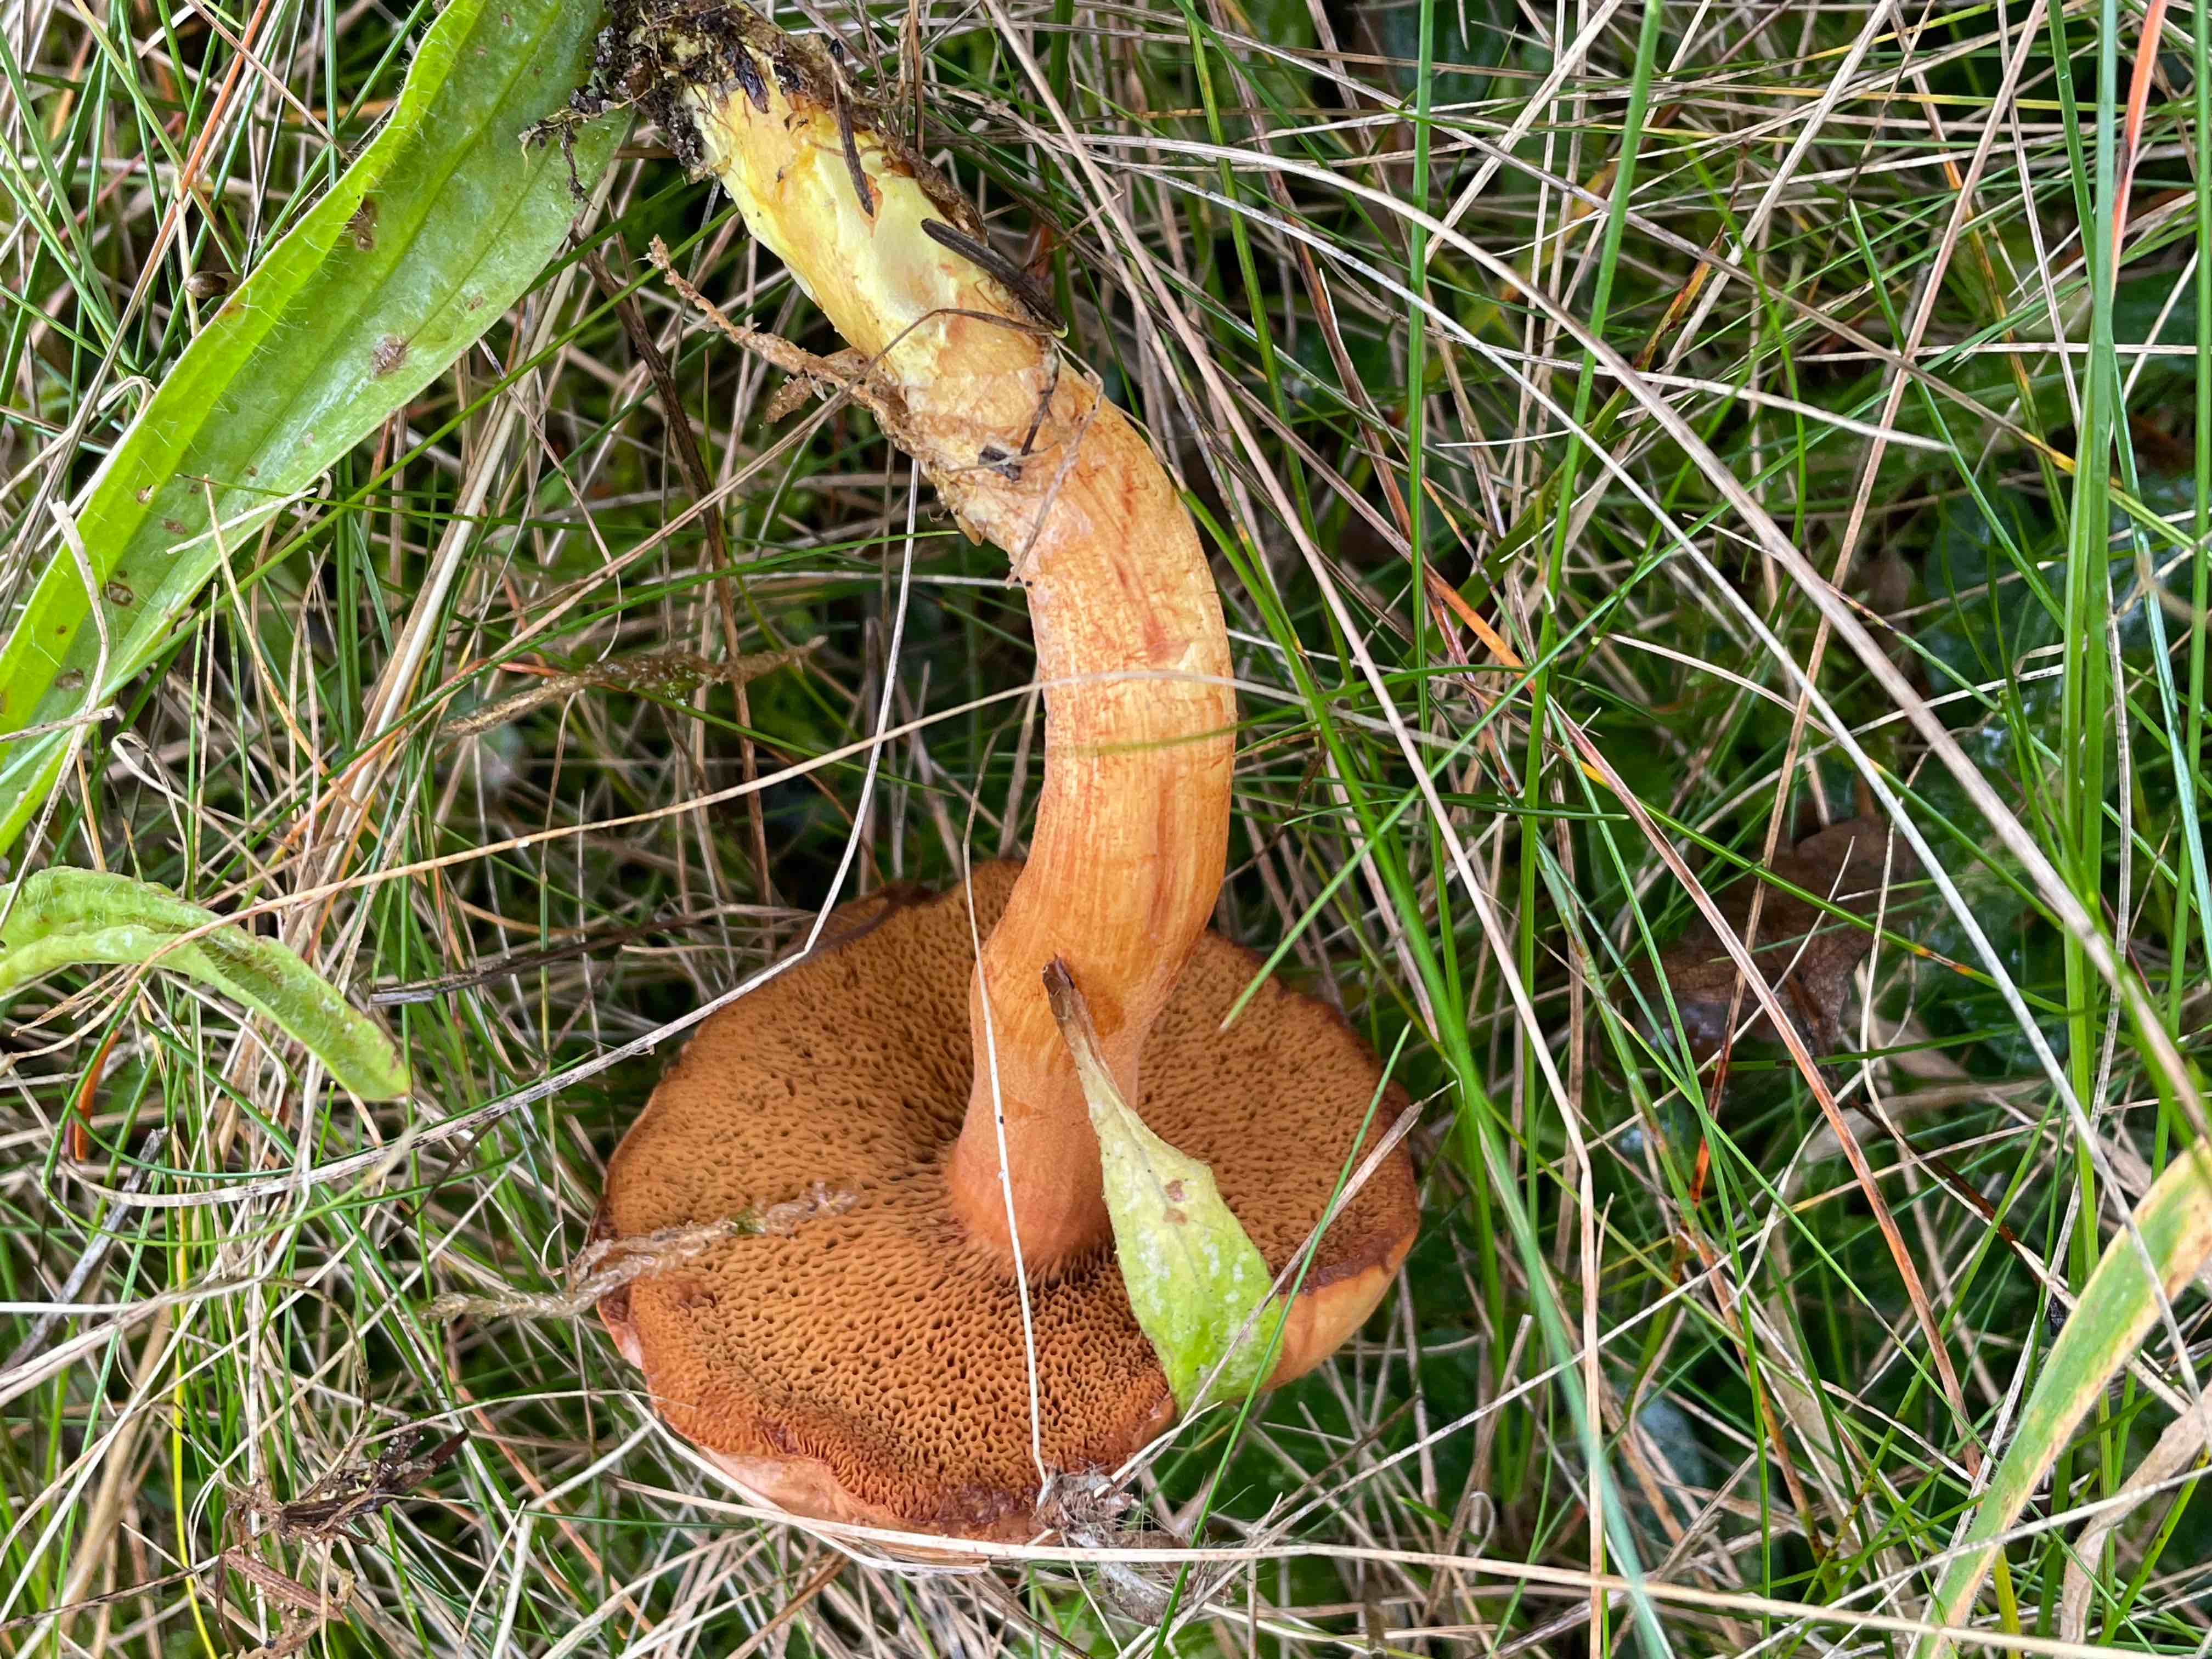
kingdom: Fungi
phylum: Basidiomycota
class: Agaricomycetes
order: Boletales
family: Boletaceae
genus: Chalciporus
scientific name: Chalciporus piperatus
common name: peberrørhat
